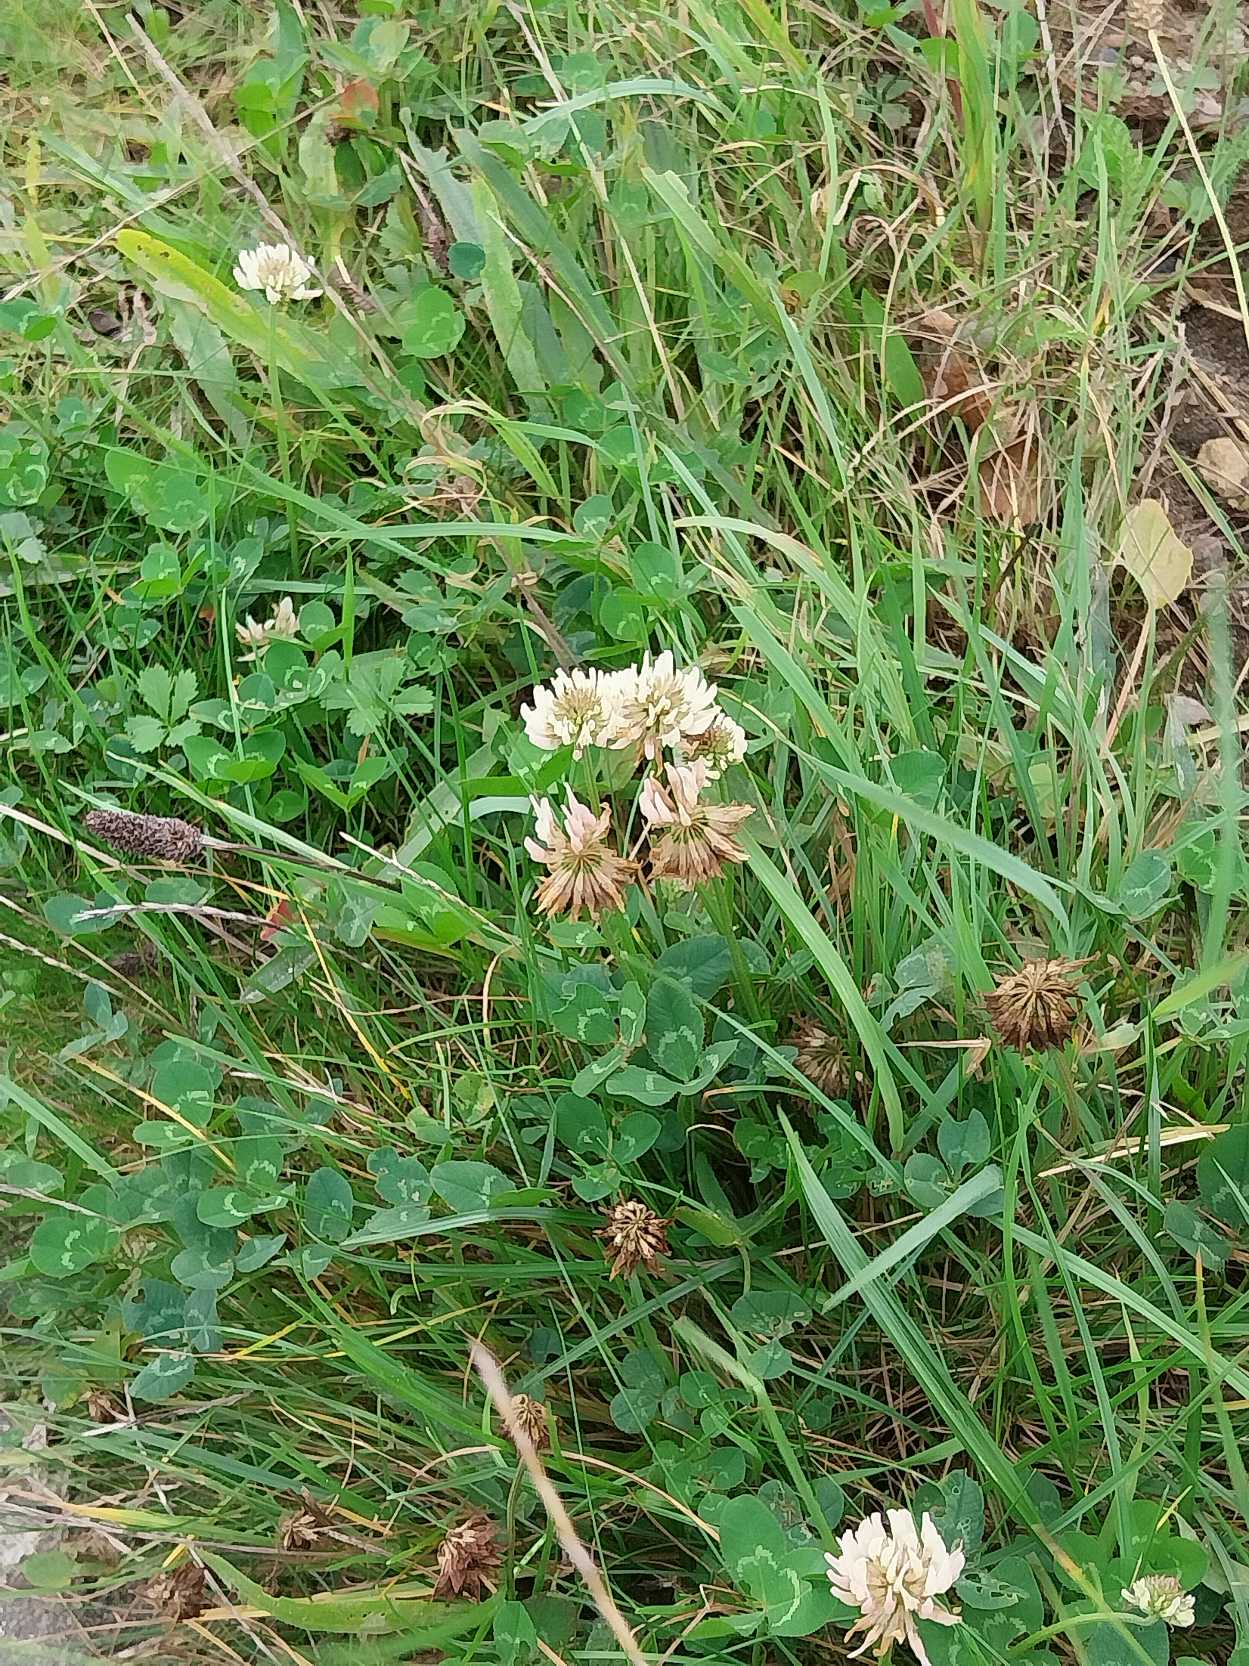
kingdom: Plantae
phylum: Tracheophyta
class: Magnoliopsida
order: Fabales
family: Fabaceae
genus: Trifolium
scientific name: Trifolium repens
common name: Hvid-kløver
